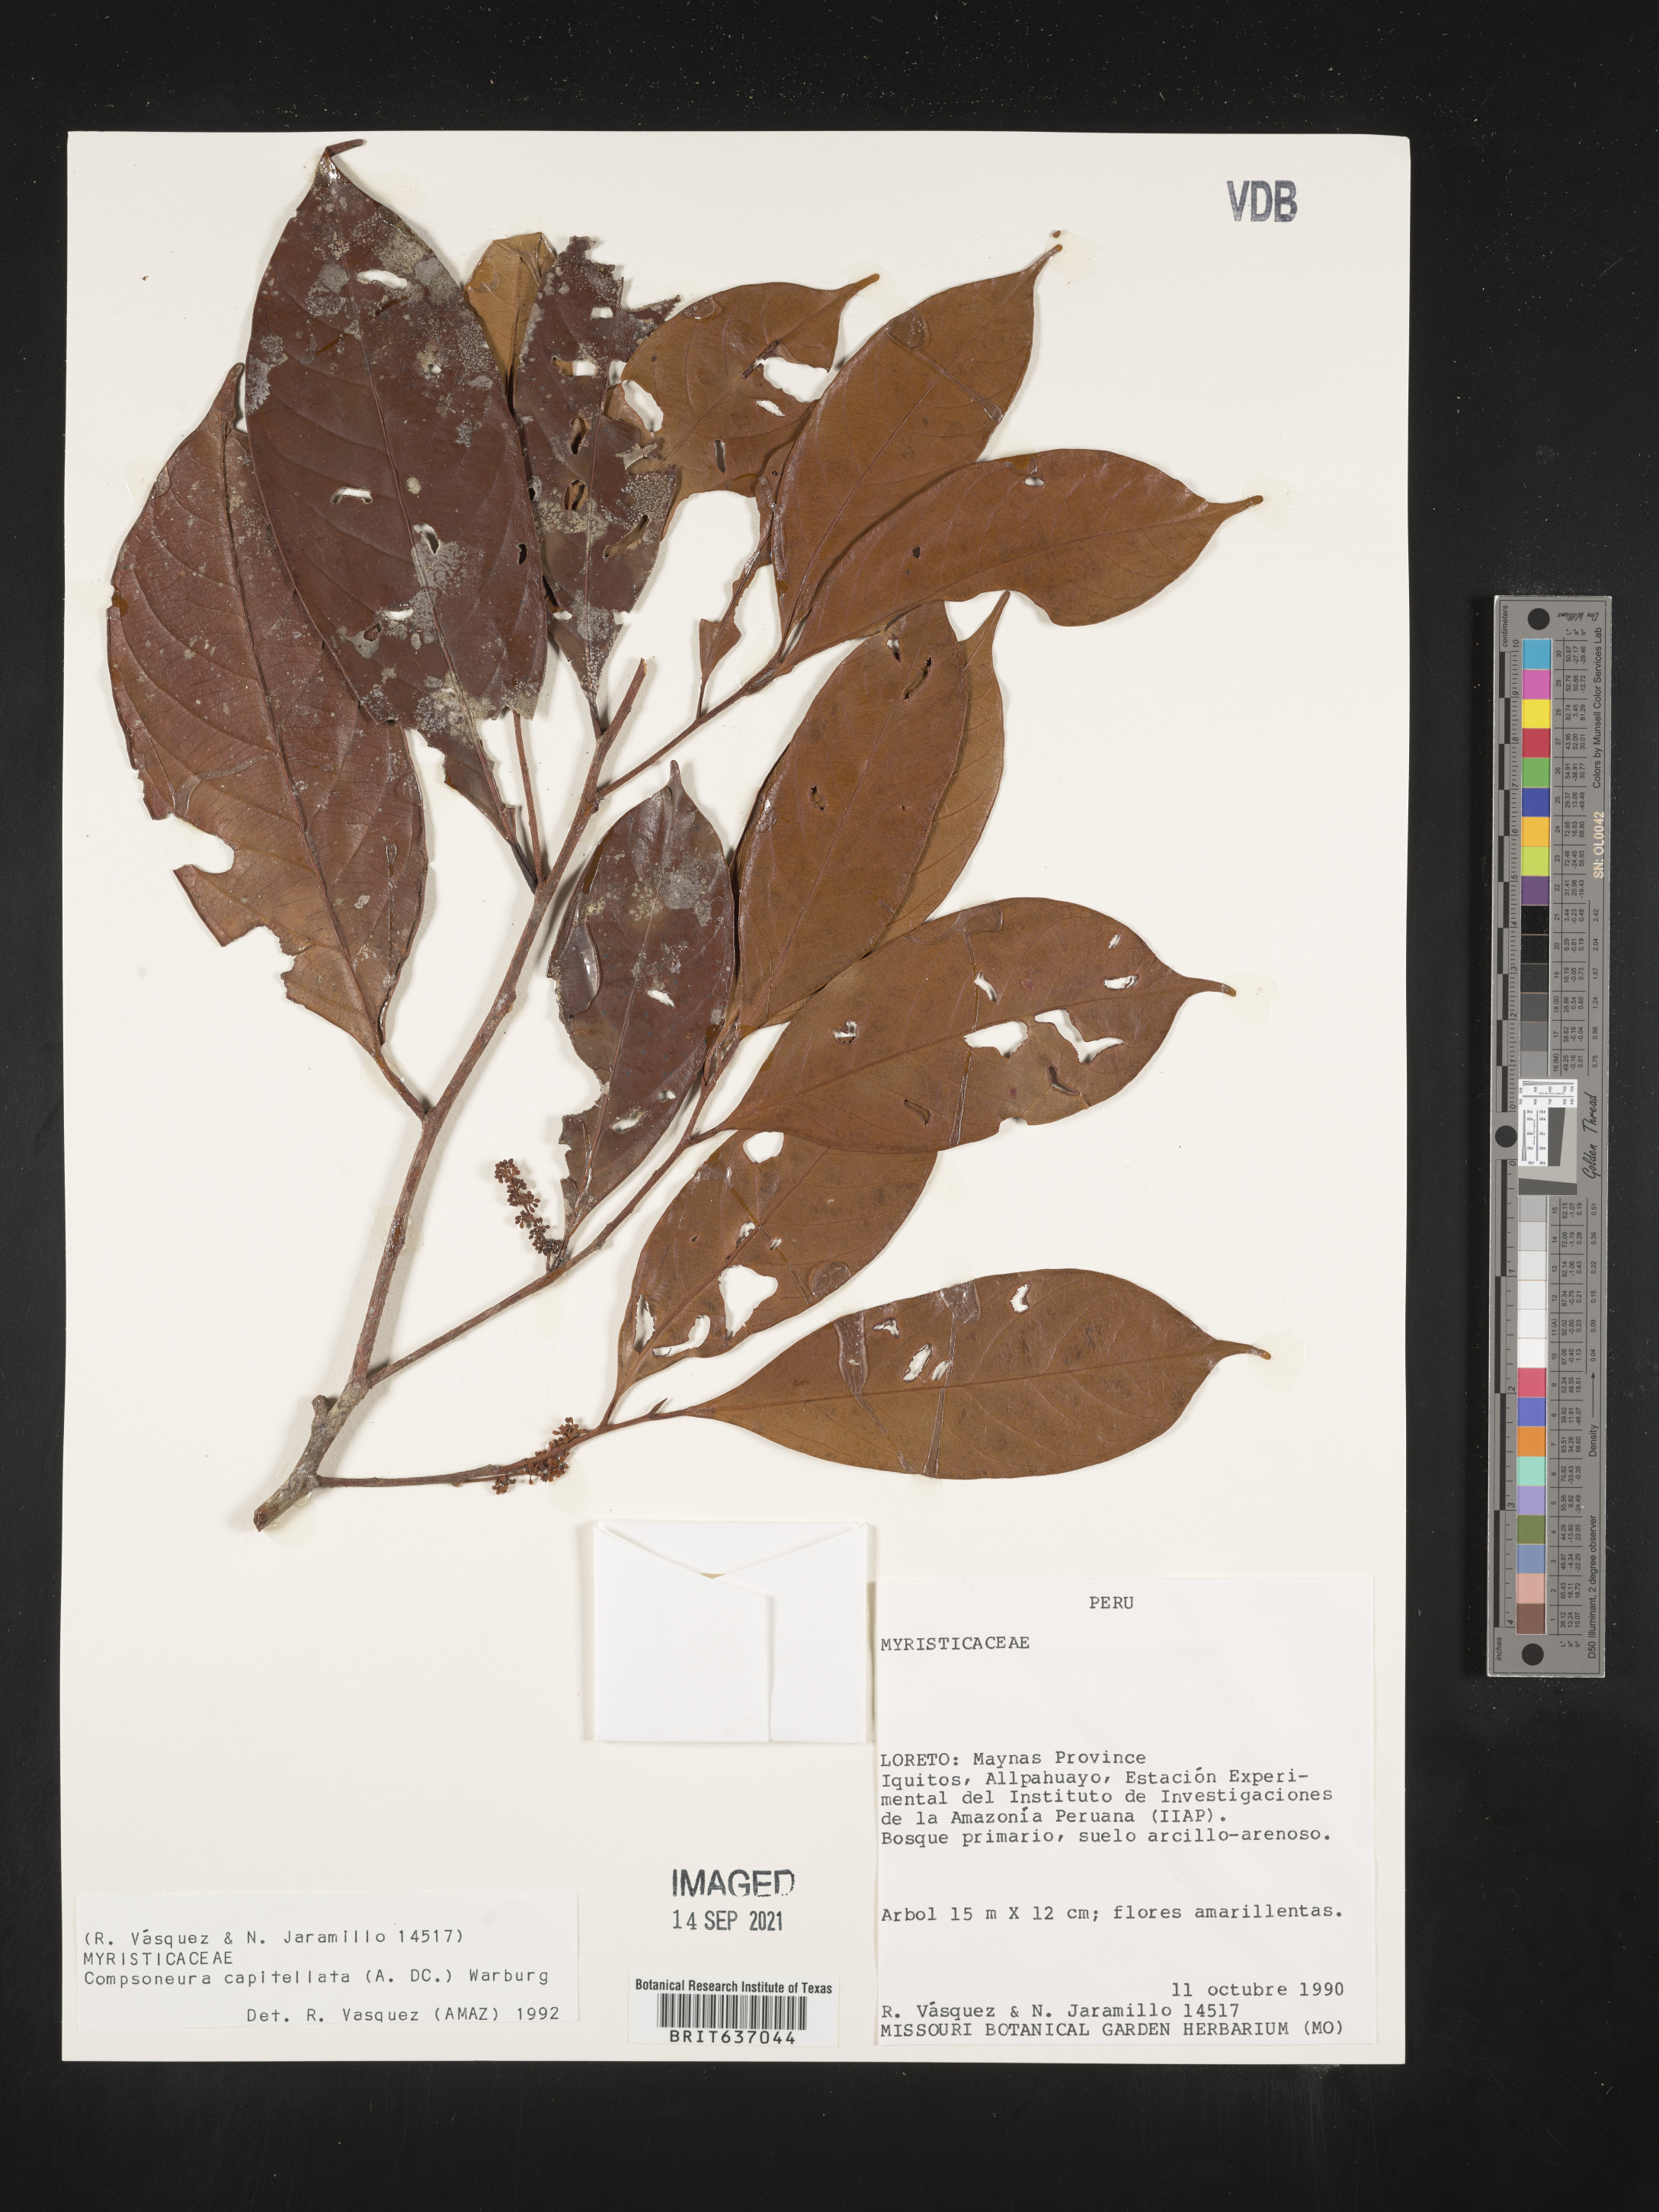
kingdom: Plantae
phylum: Tracheophyta
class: Magnoliopsida
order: Magnoliales
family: Myristicaceae
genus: Compsoneura
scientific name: Compsoneura
